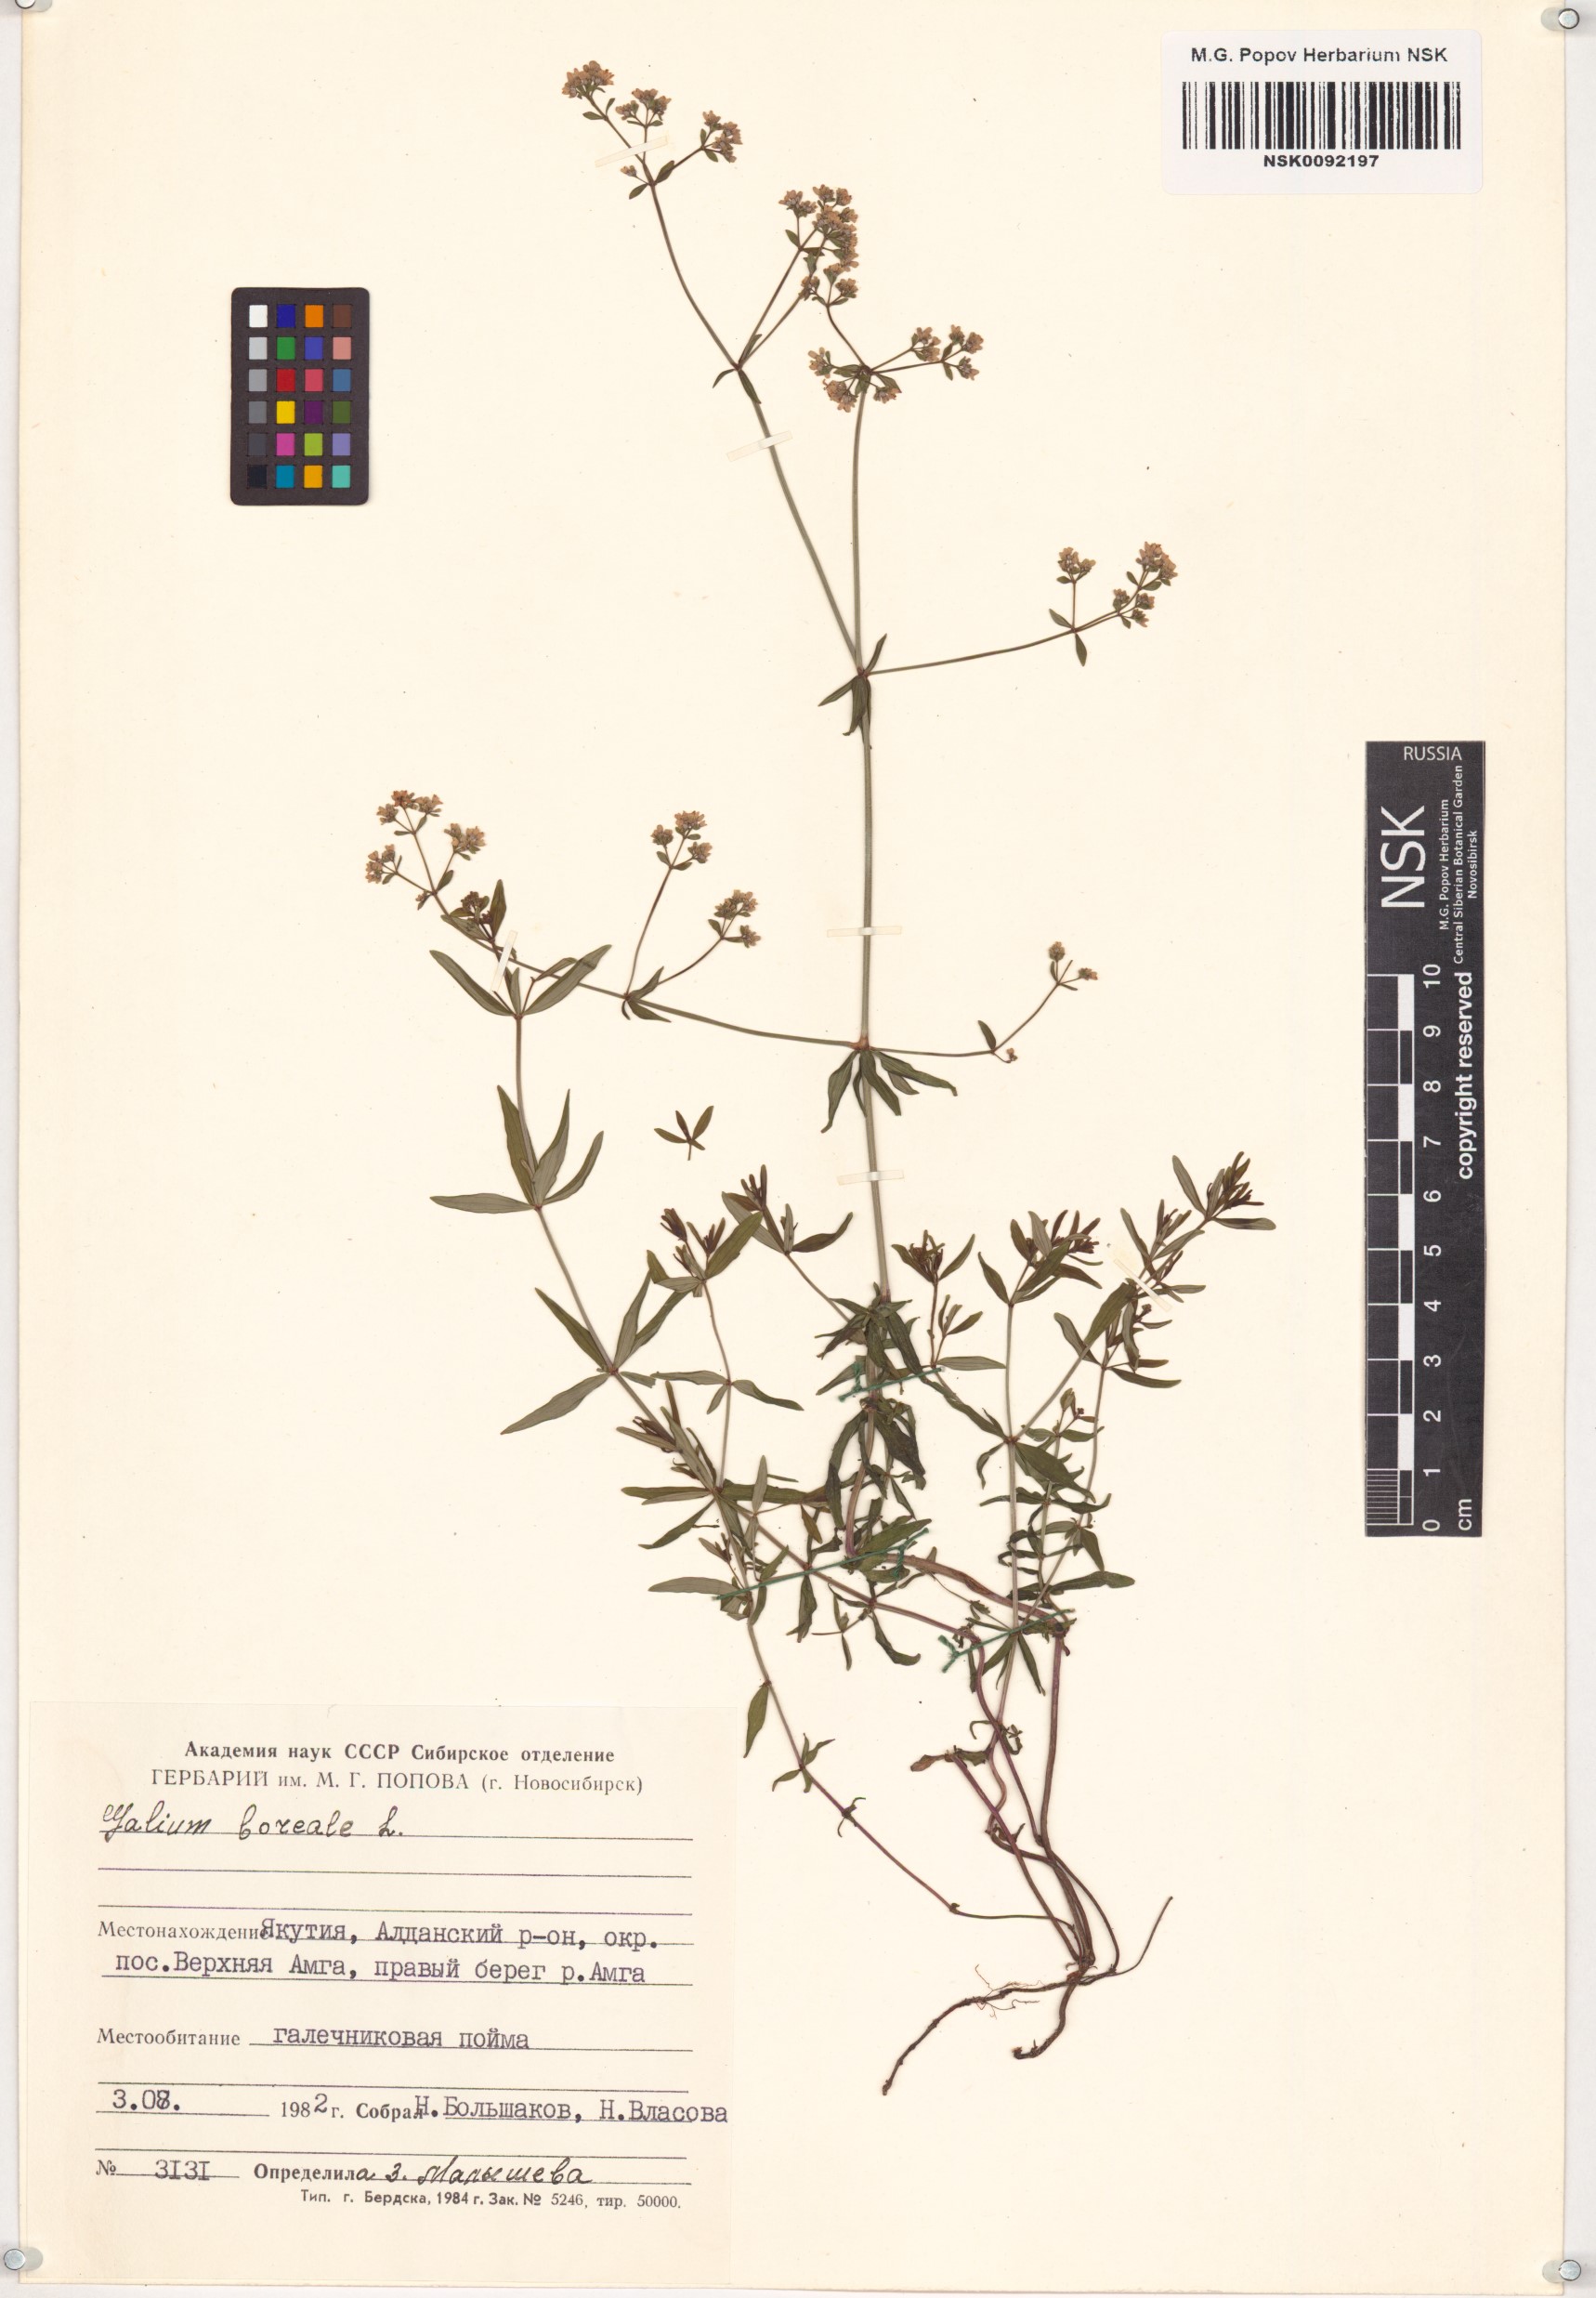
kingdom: Plantae
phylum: Tracheophyta
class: Magnoliopsida
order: Gentianales
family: Rubiaceae
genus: Galium
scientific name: Galium boreale
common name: Northern bedstraw
